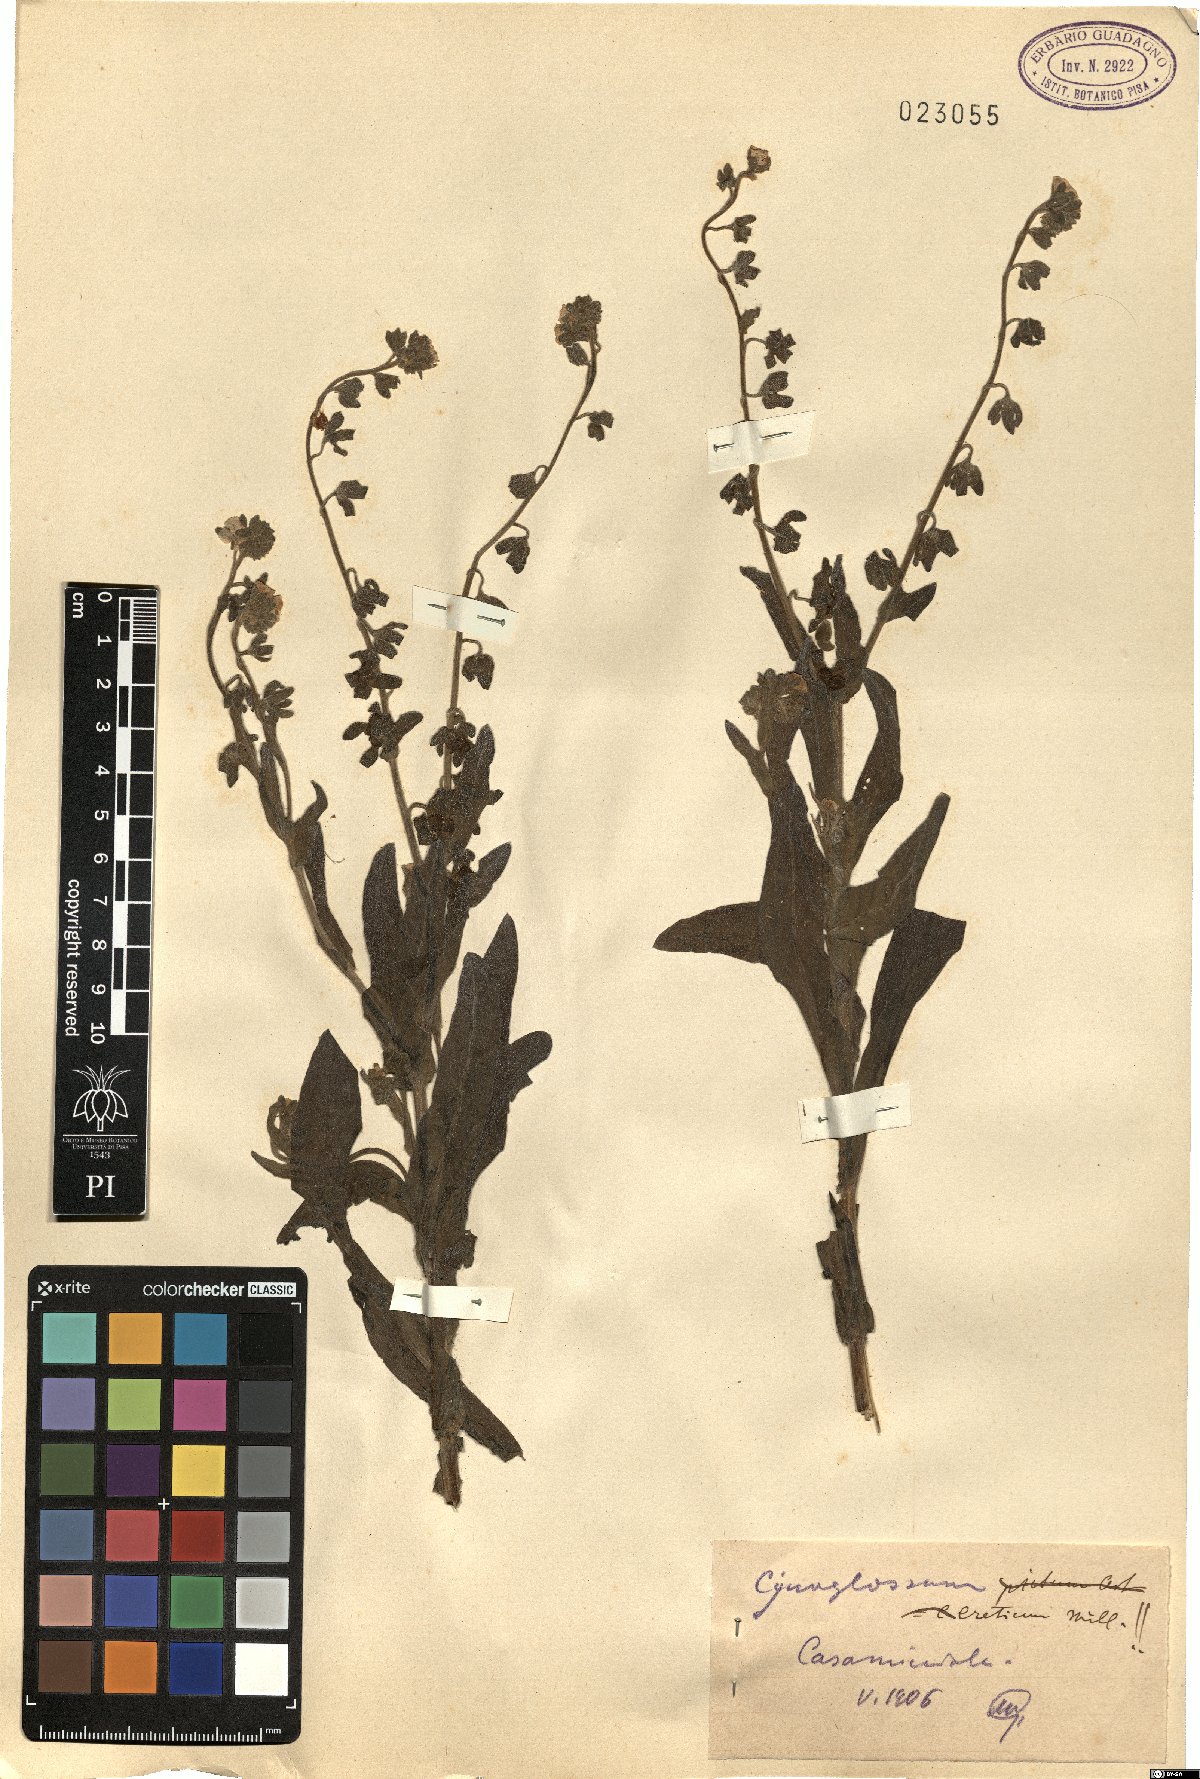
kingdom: Plantae
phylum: Tracheophyta
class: Magnoliopsida
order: Boraginales
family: Boraginaceae
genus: Cynoglossum
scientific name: Cynoglossum creticum
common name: Blue hound's tongue
